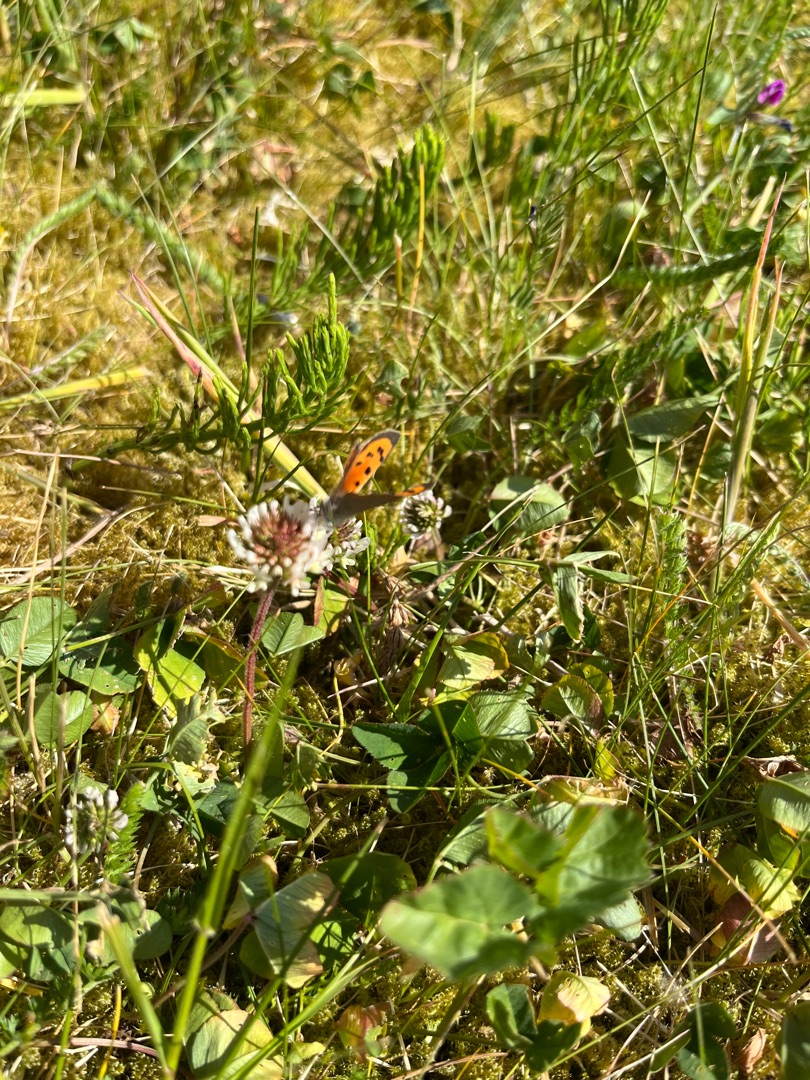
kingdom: Animalia
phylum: Arthropoda
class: Insecta
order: Lepidoptera
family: Lycaenidae
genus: Lycaena
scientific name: Lycaena phlaeas
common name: Lille ildfugl
